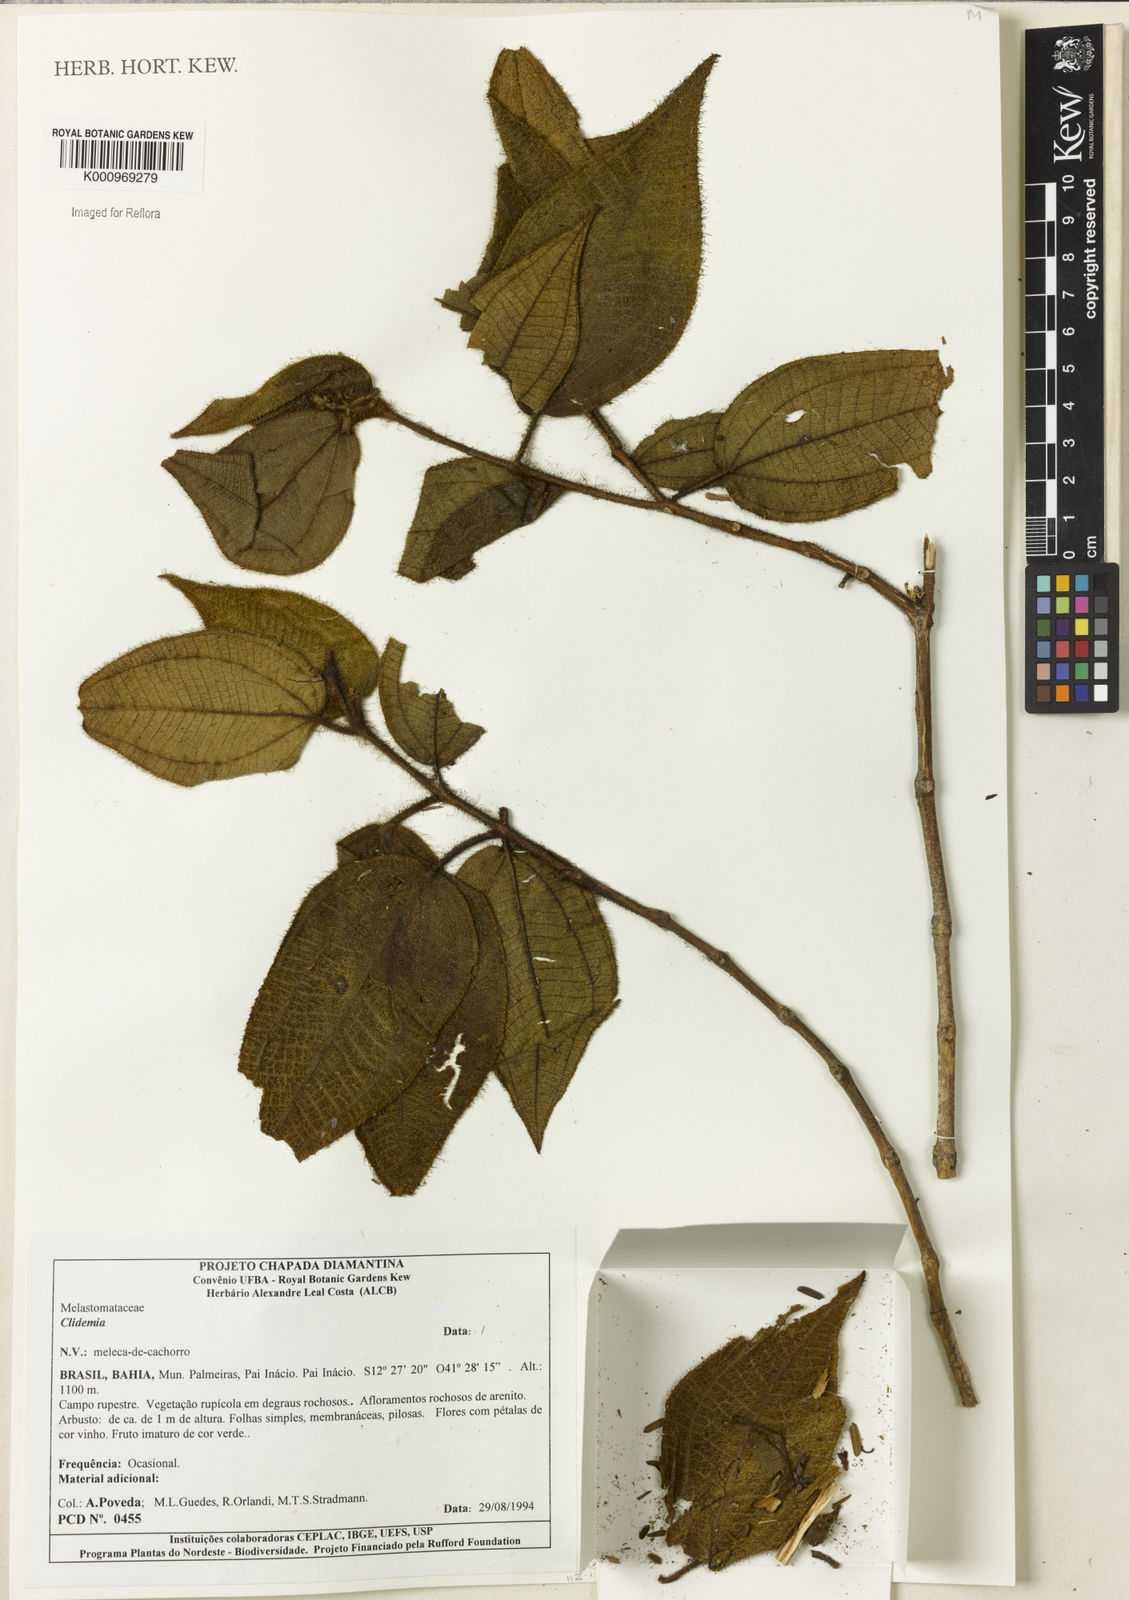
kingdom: Plantae
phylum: Tracheophyta
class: Magnoliopsida
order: Myrtales
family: Melastomataceae
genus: Miconia
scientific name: Miconia
